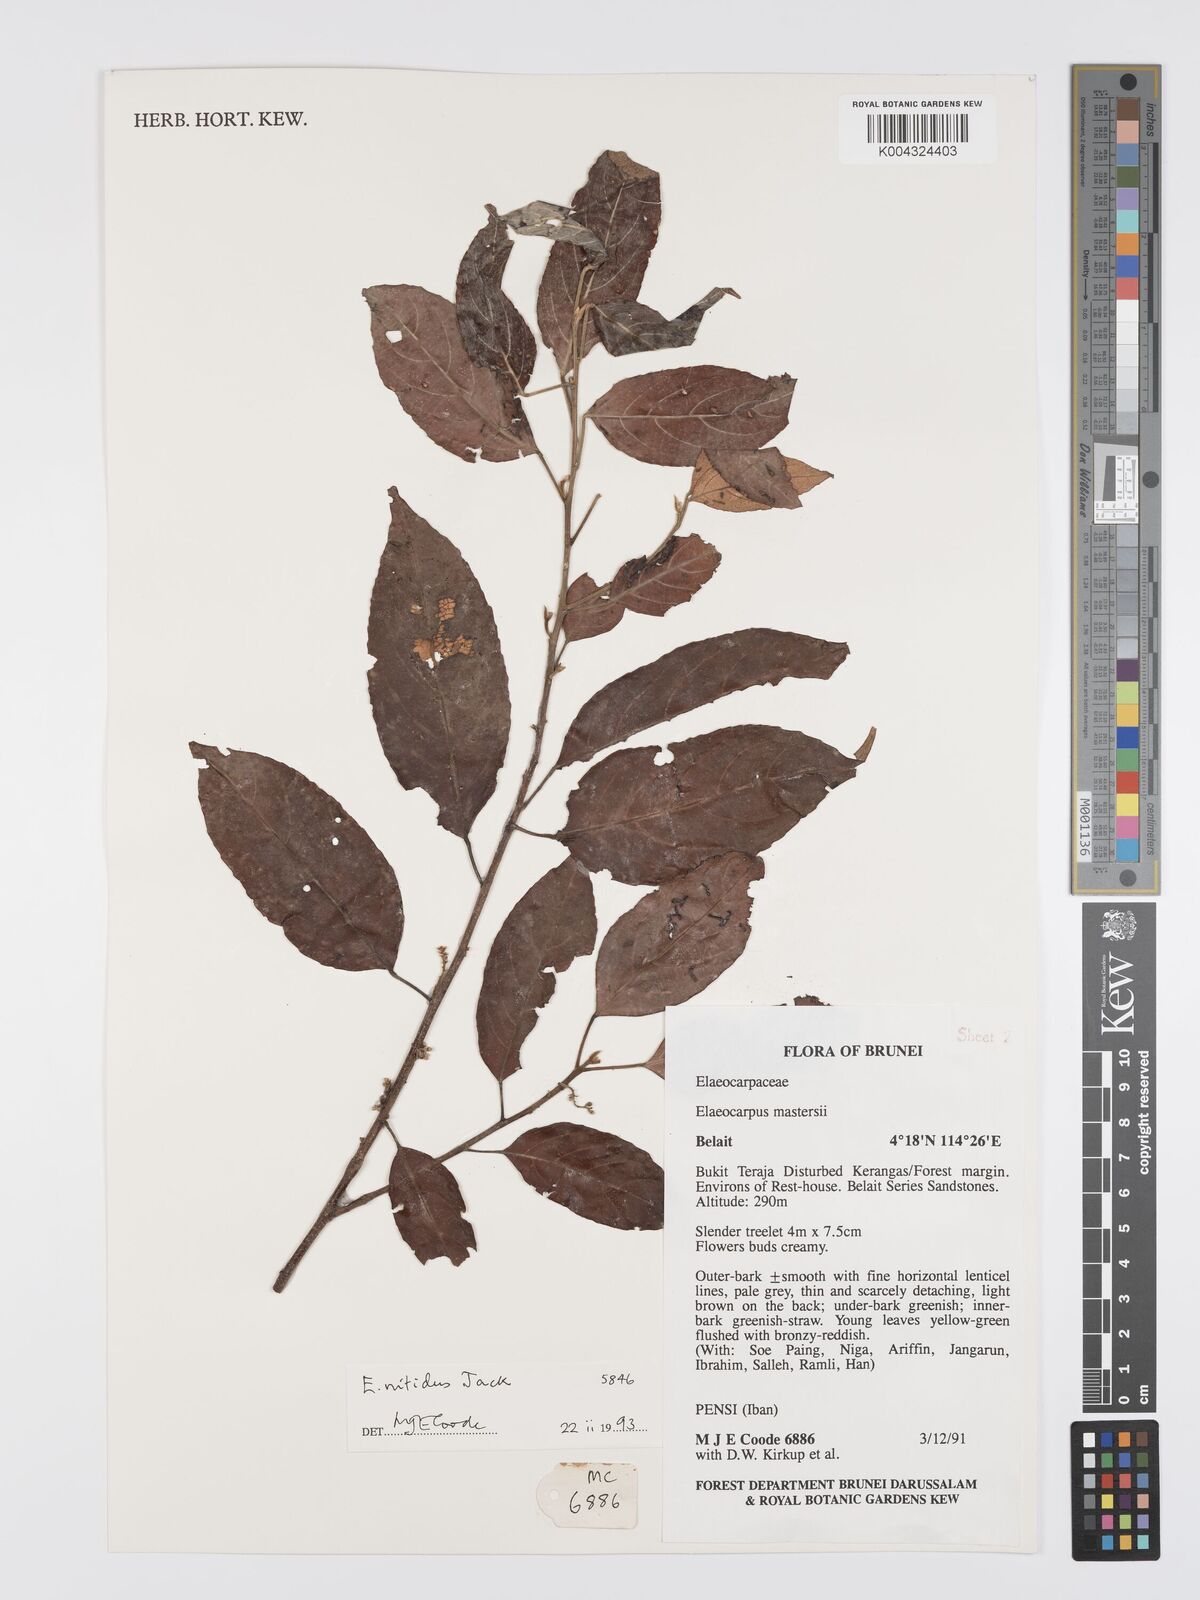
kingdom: Plantae
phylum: Tracheophyta
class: Magnoliopsida
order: Oxalidales
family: Elaeocarpaceae
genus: Elaeocarpus
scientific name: Elaeocarpus nitidus
